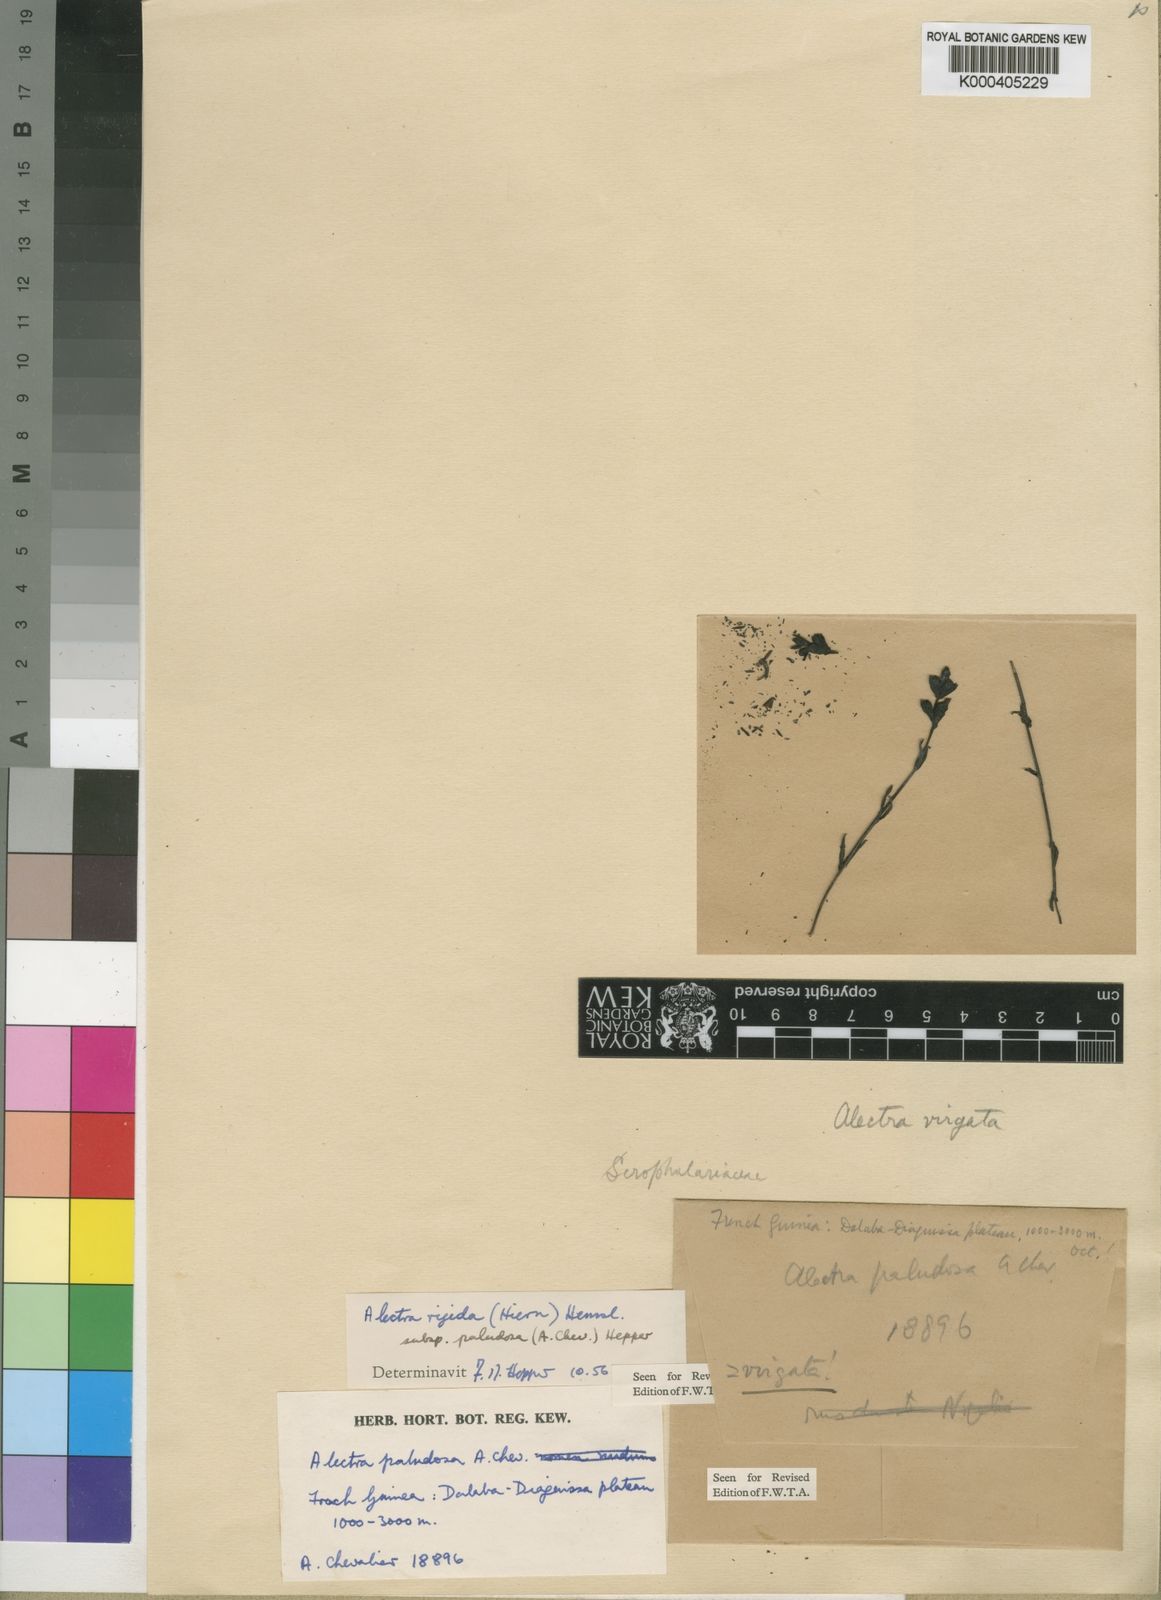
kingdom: Plantae
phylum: Tracheophyta
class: Magnoliopsida
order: Lamiales
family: Orobanchaceae
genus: Alectra
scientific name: Alectra rigida
